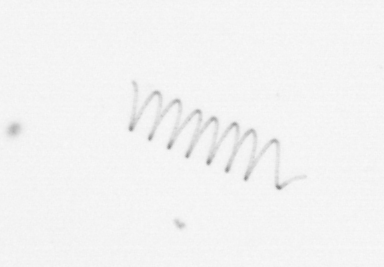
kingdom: Chromista
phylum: Ochrophyta
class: Bacillariophyceae
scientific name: Bacillariophyceae
